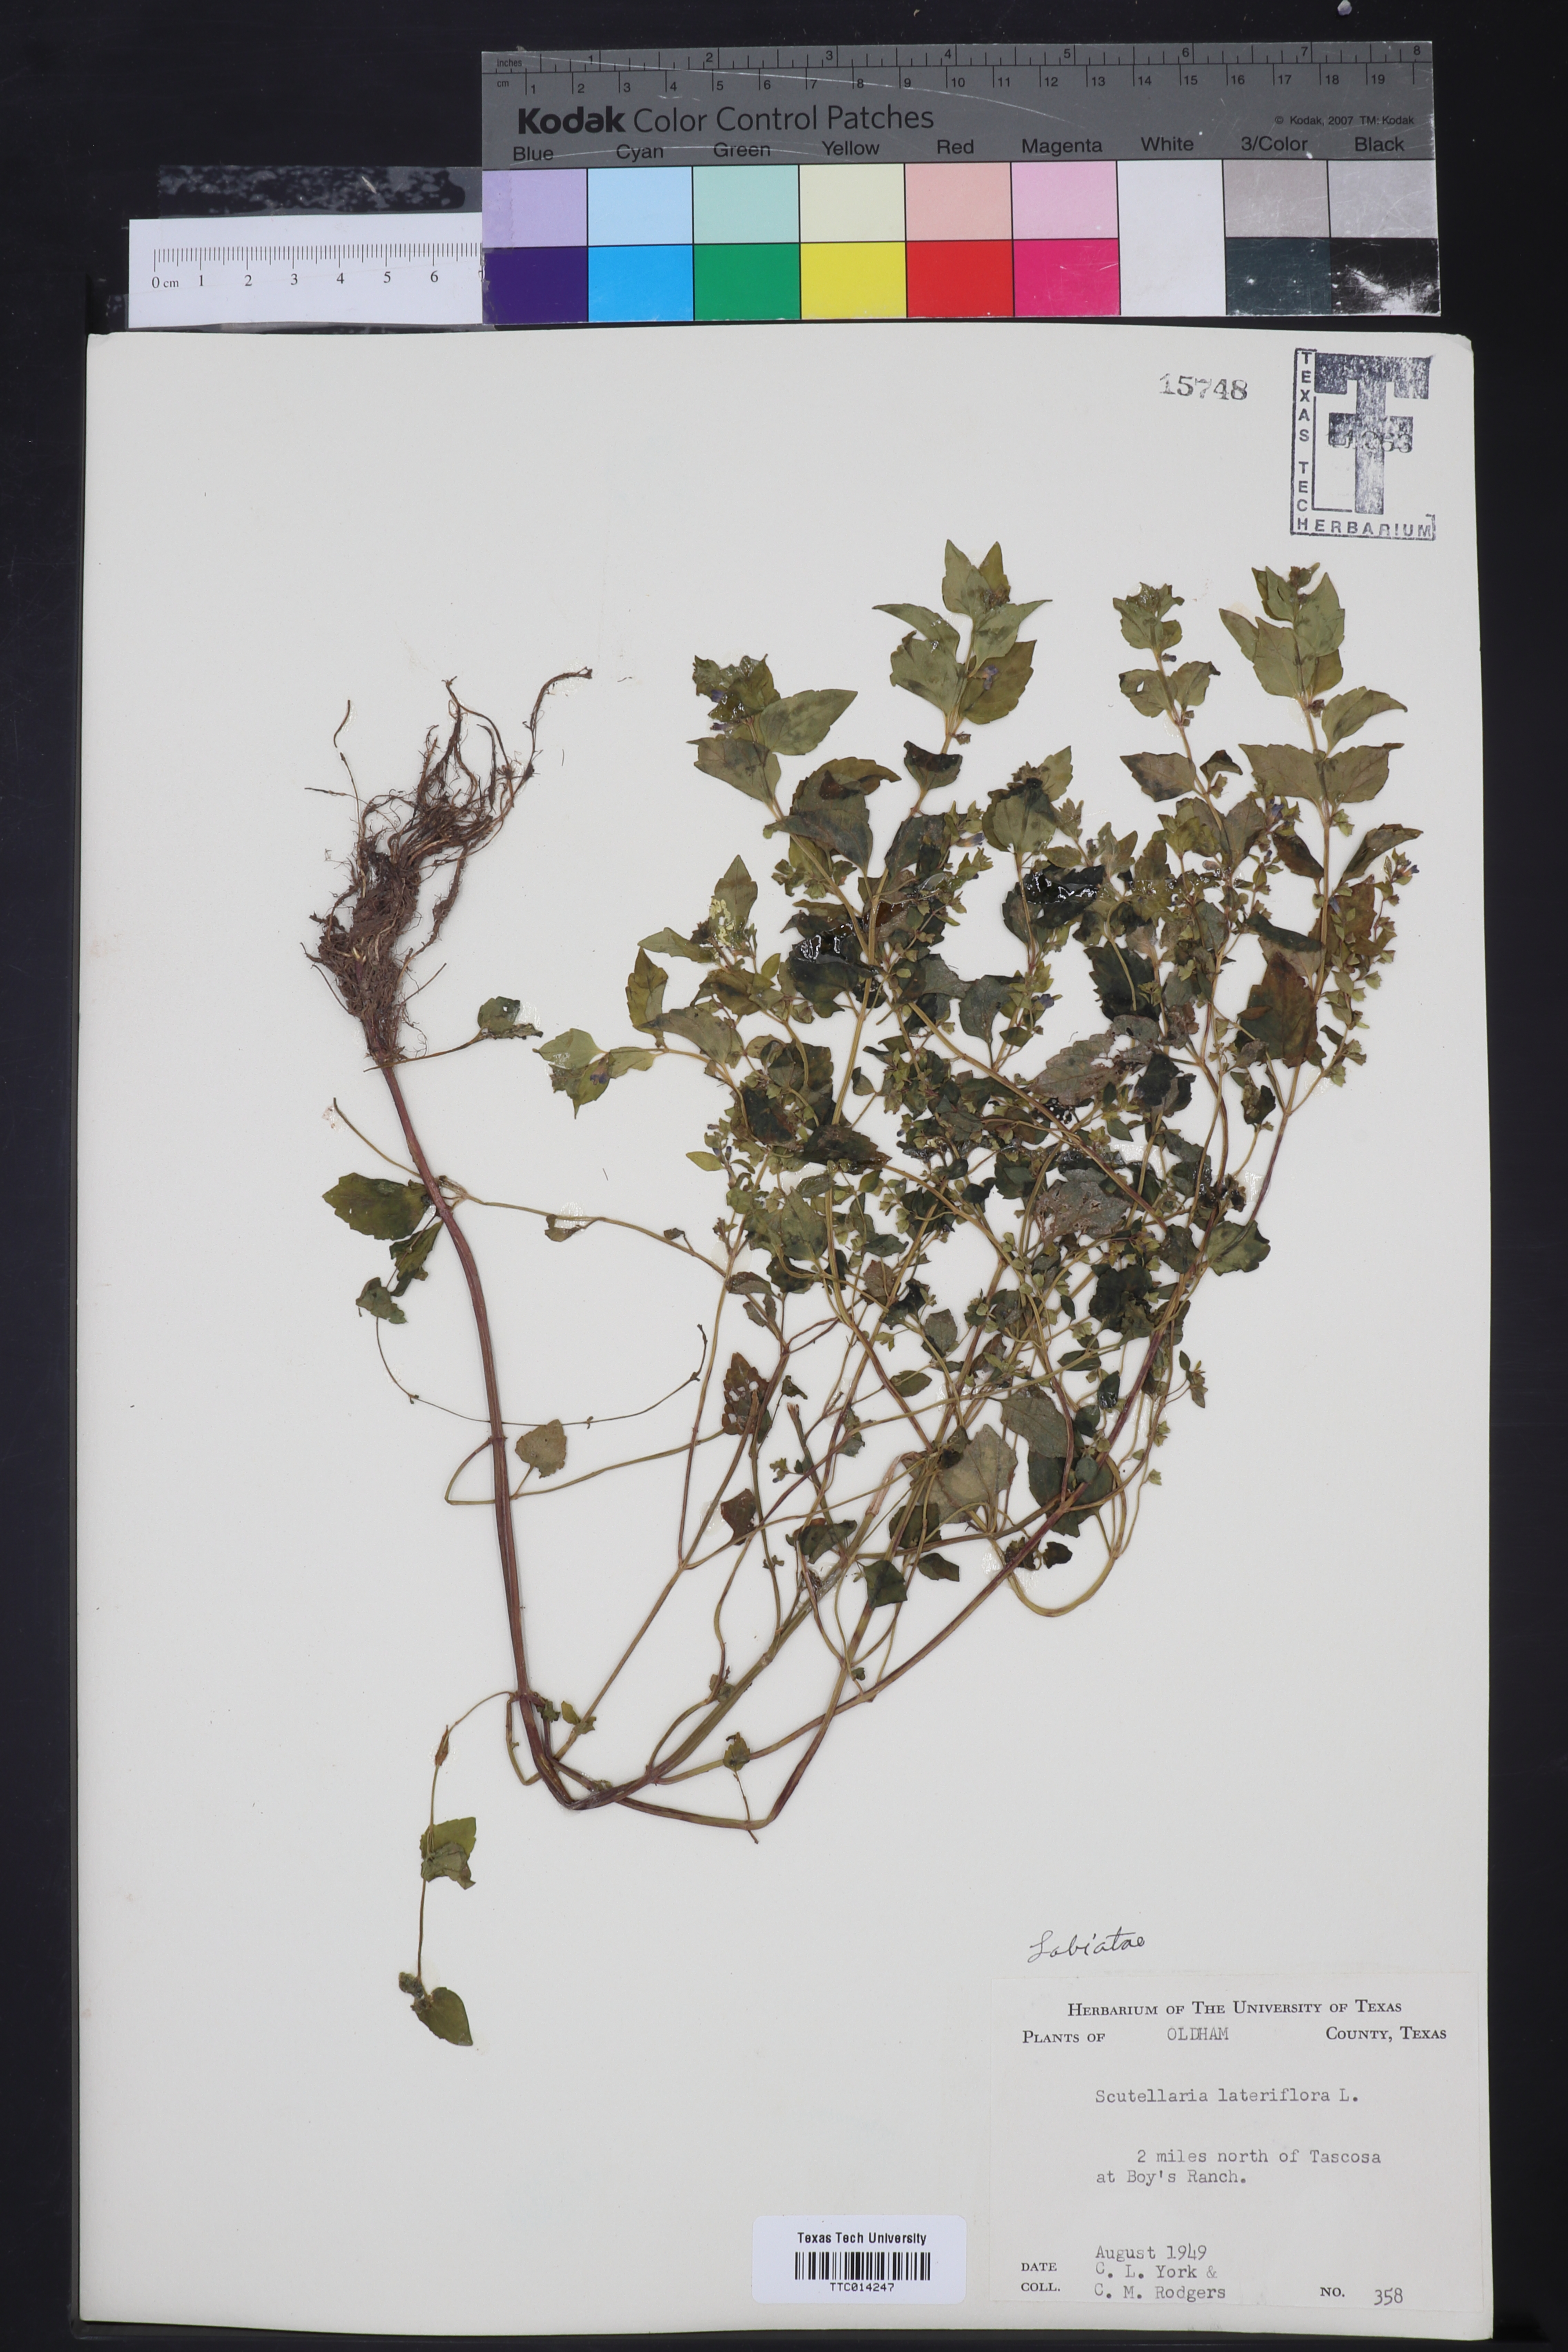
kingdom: Plantae
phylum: Tracheophyta
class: Magnoliopsida
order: Lamiales
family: Lamiaceae
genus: Scutellaria
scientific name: Scutellaria lateriflora
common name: Blue skullcap
